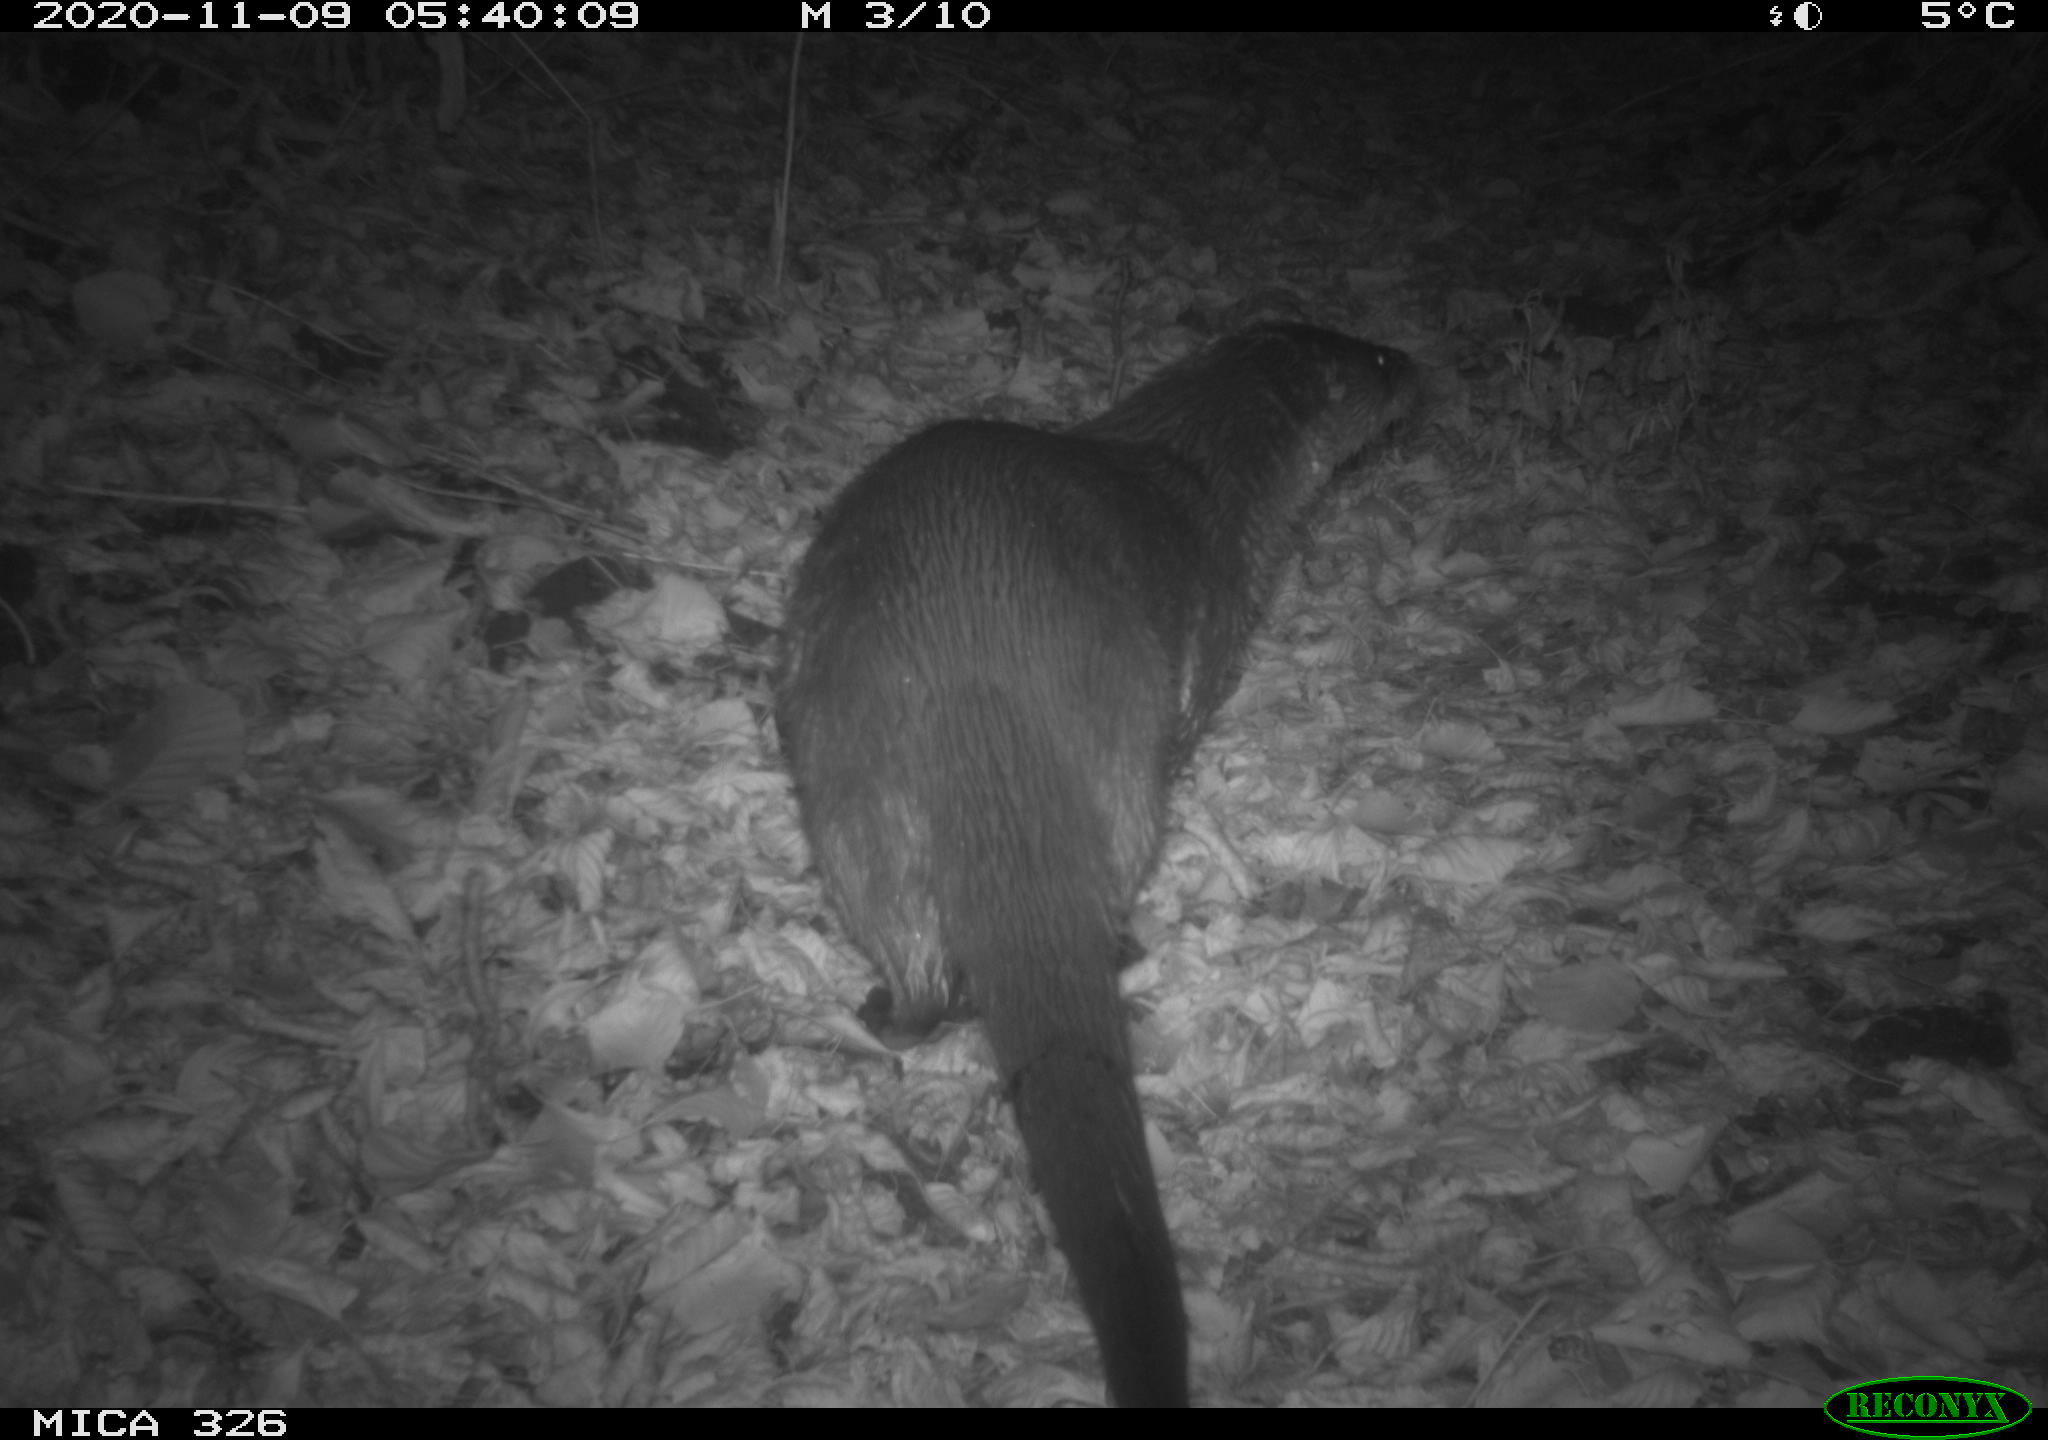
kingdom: Animalia
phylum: Chordata
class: Mammalia
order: Carnivora
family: Mustelidae
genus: Lutra
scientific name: Lutra lutra
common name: European otter
